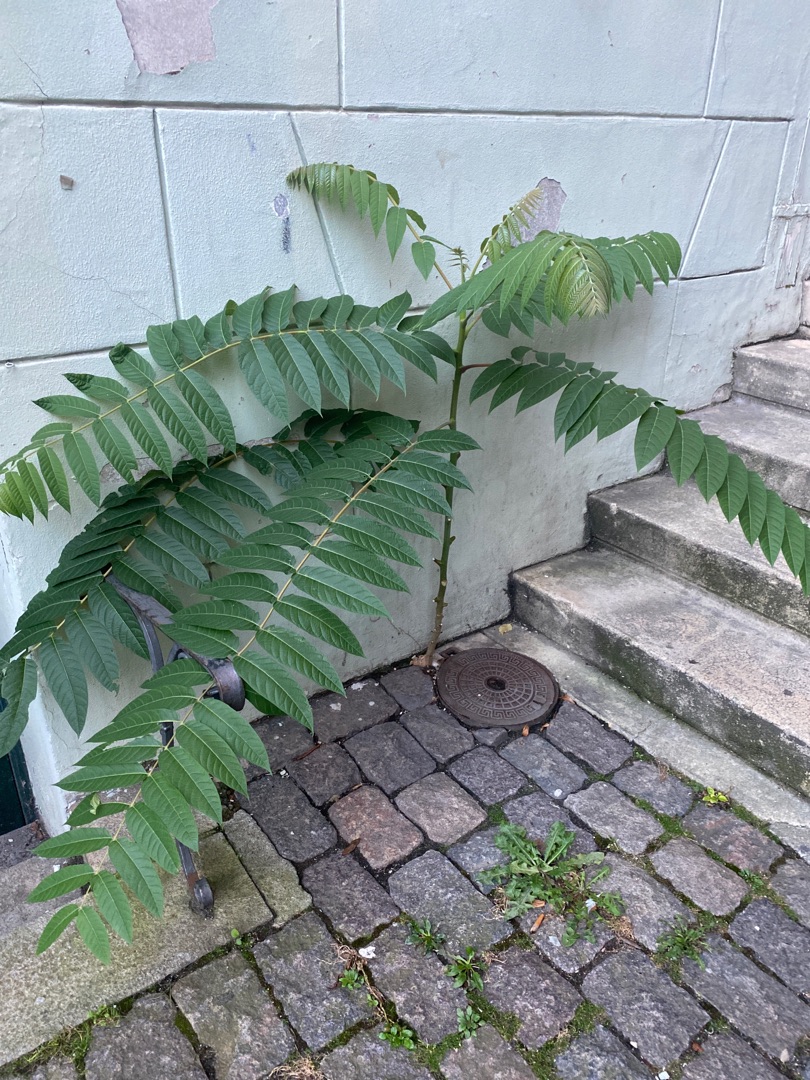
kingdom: Plantae
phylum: Tracheophyta
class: Magnoliopsida
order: Sapindales
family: Simaroubaceae
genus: Ailanthus
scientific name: Ailanthus altissima
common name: Skyrækker
